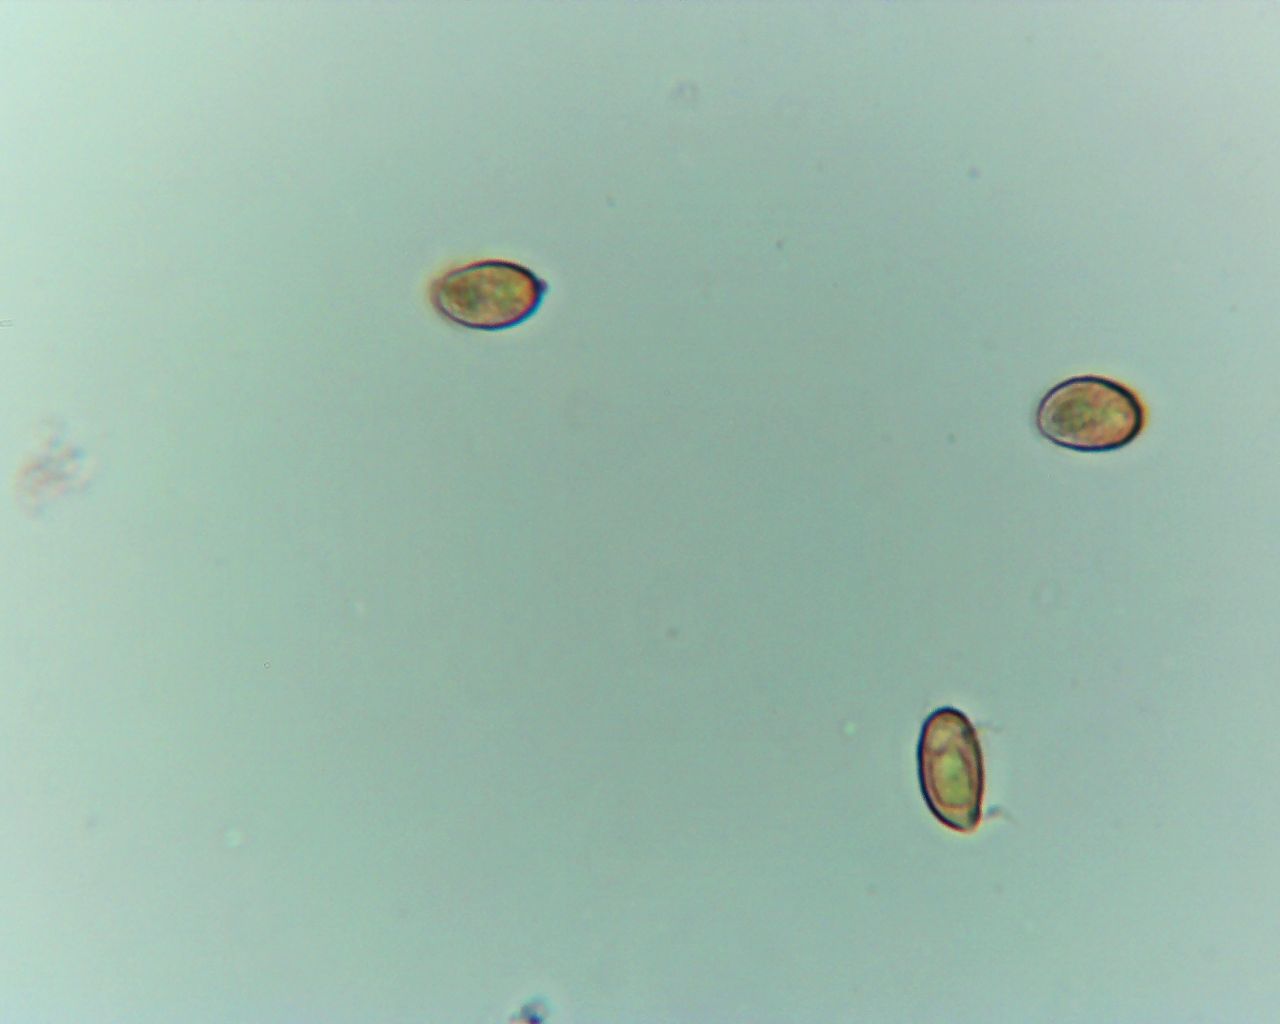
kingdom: Fungi
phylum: Basidiomycota
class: Agaricomycetes
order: Agaricales
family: Cortinariaceae
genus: Cortinarius
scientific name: Cortinarius sanguineus
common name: Bloodred webcap
